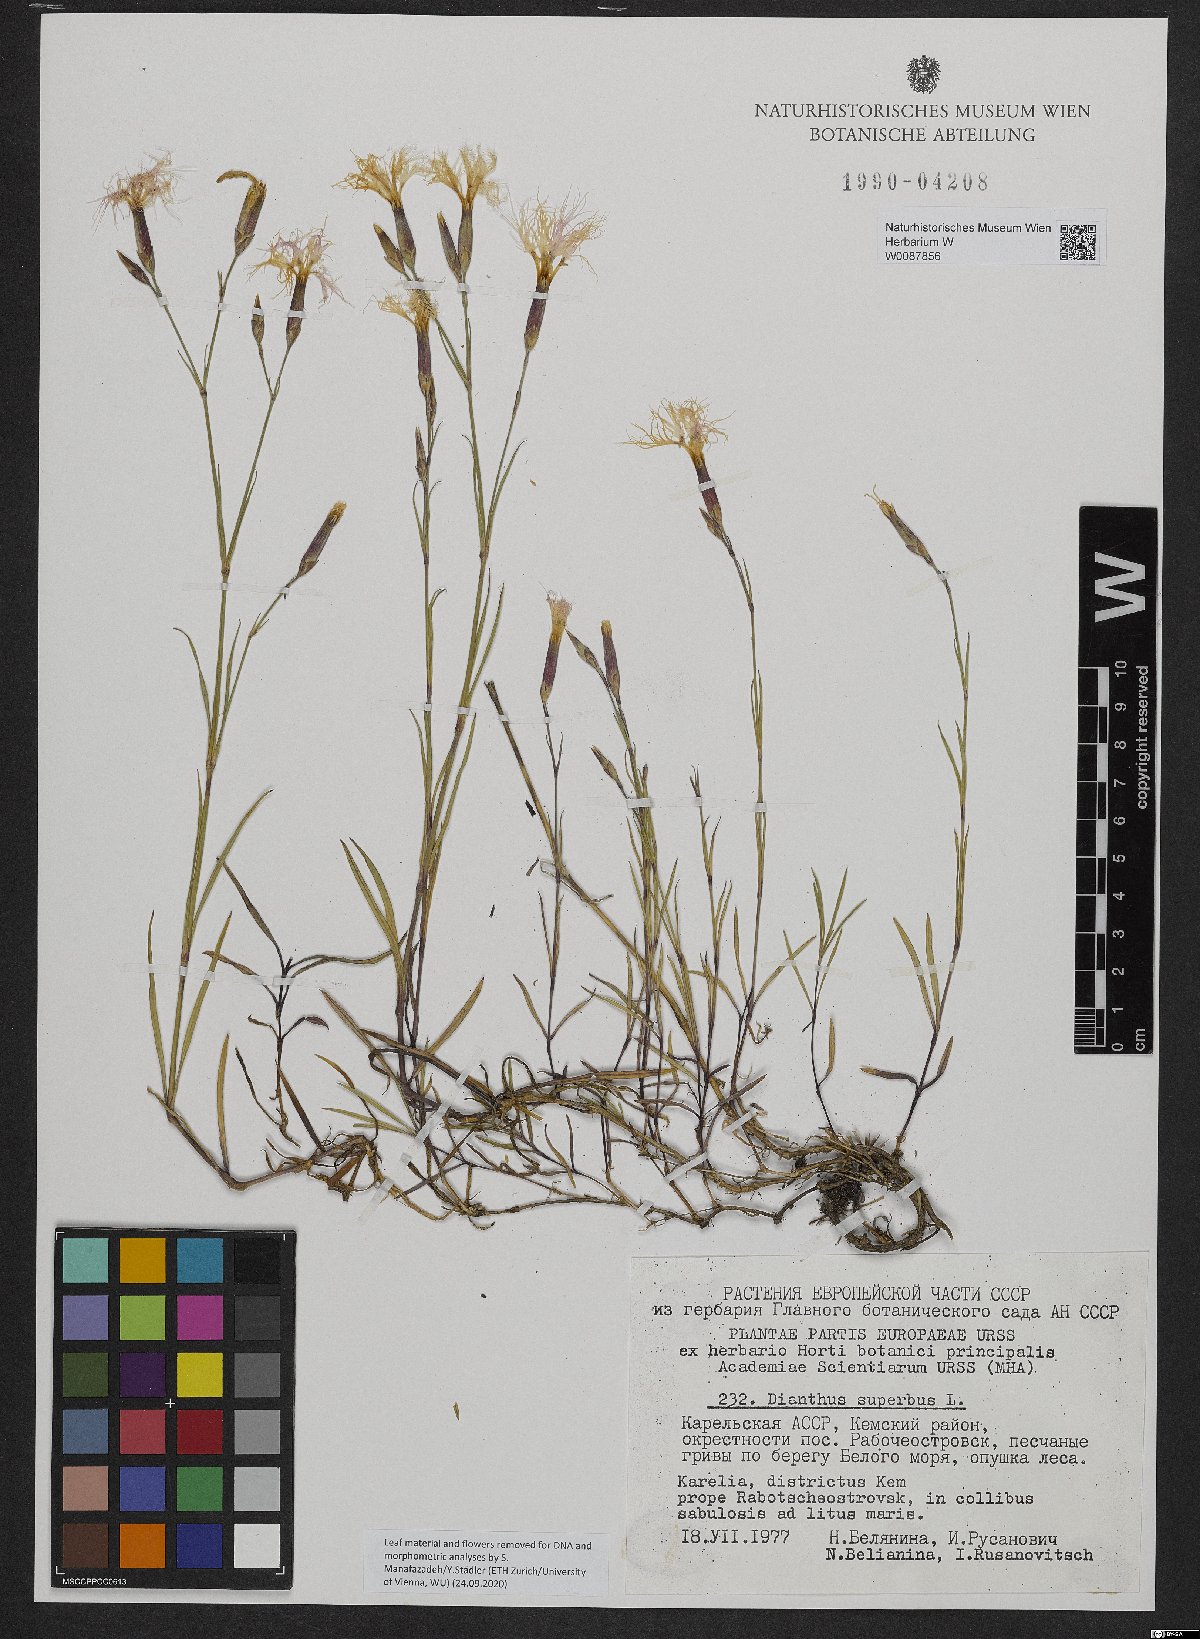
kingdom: Plantae
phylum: Tracheophyta
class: Magnoliopsida
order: Caryophyllales
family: Caryophyllaceae
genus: Dianthus
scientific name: Dianthus superbus
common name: Fringed pink
